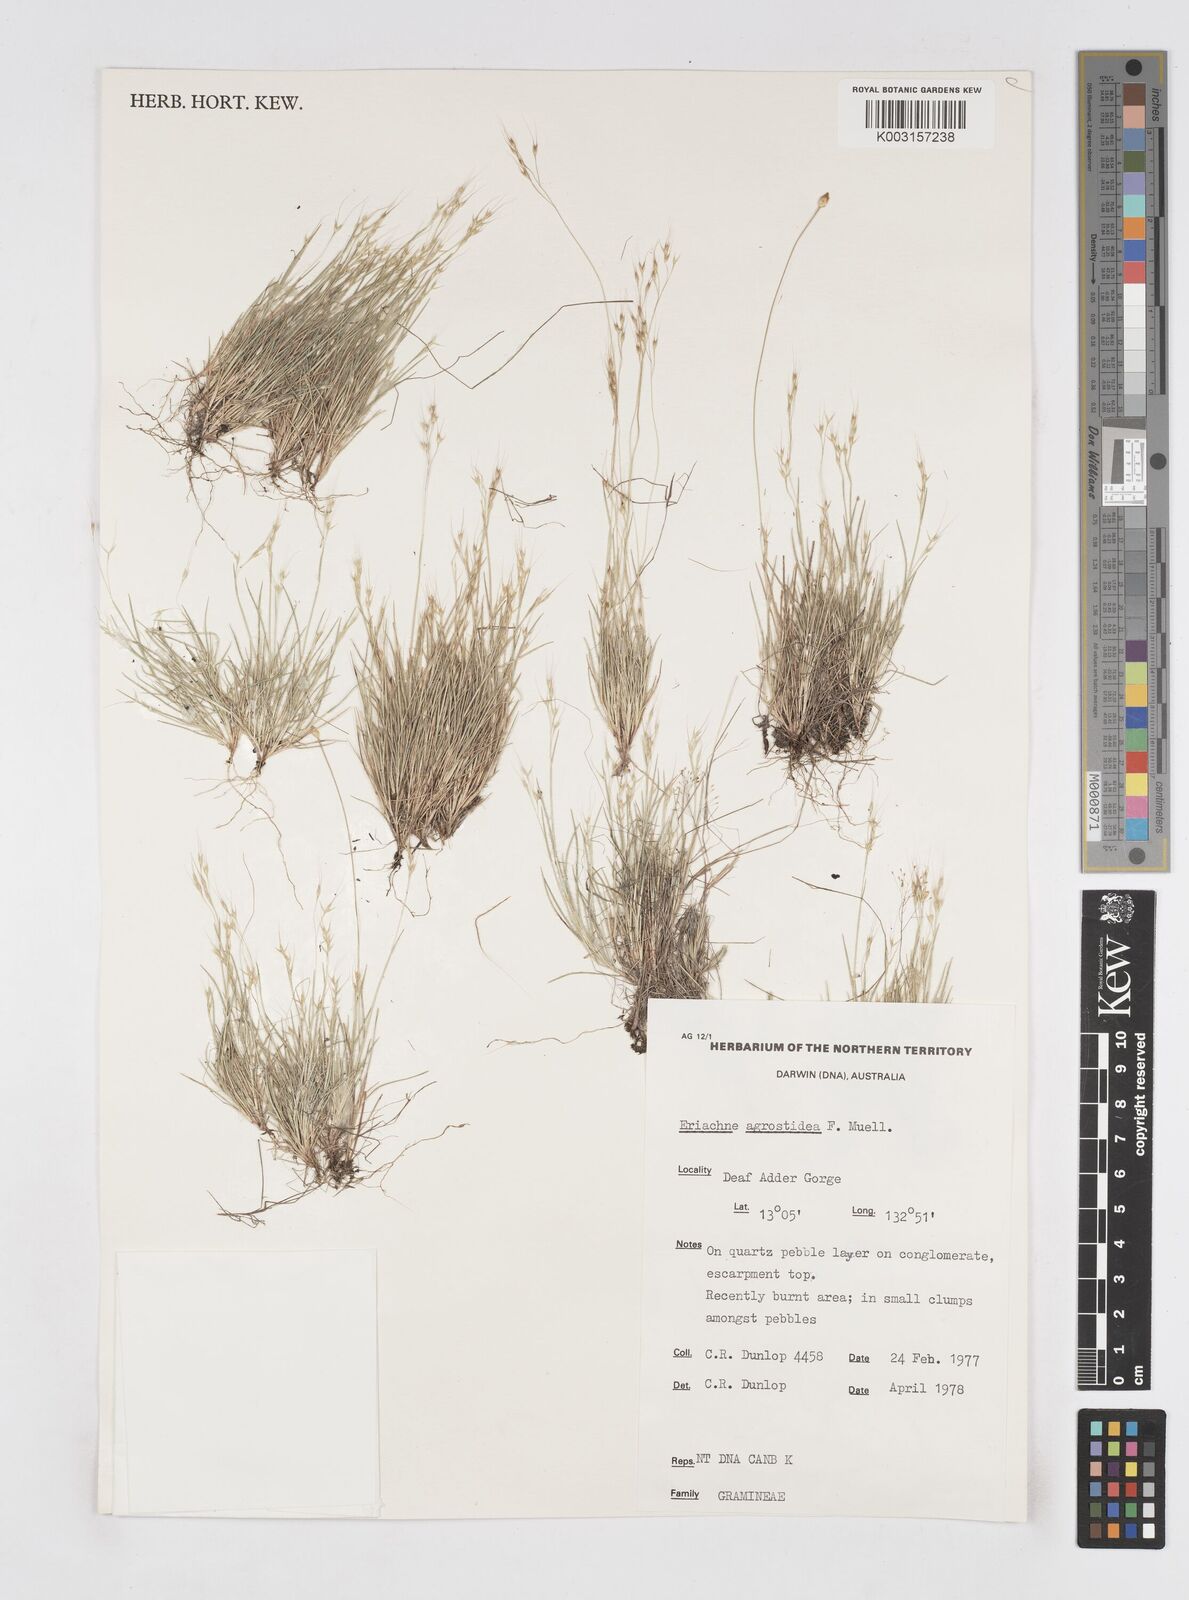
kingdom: Plantae
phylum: Tracheophyta
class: Liliopsida
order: Poales
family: Poaceae
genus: Eriachne
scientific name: Eriachne agrostidea
